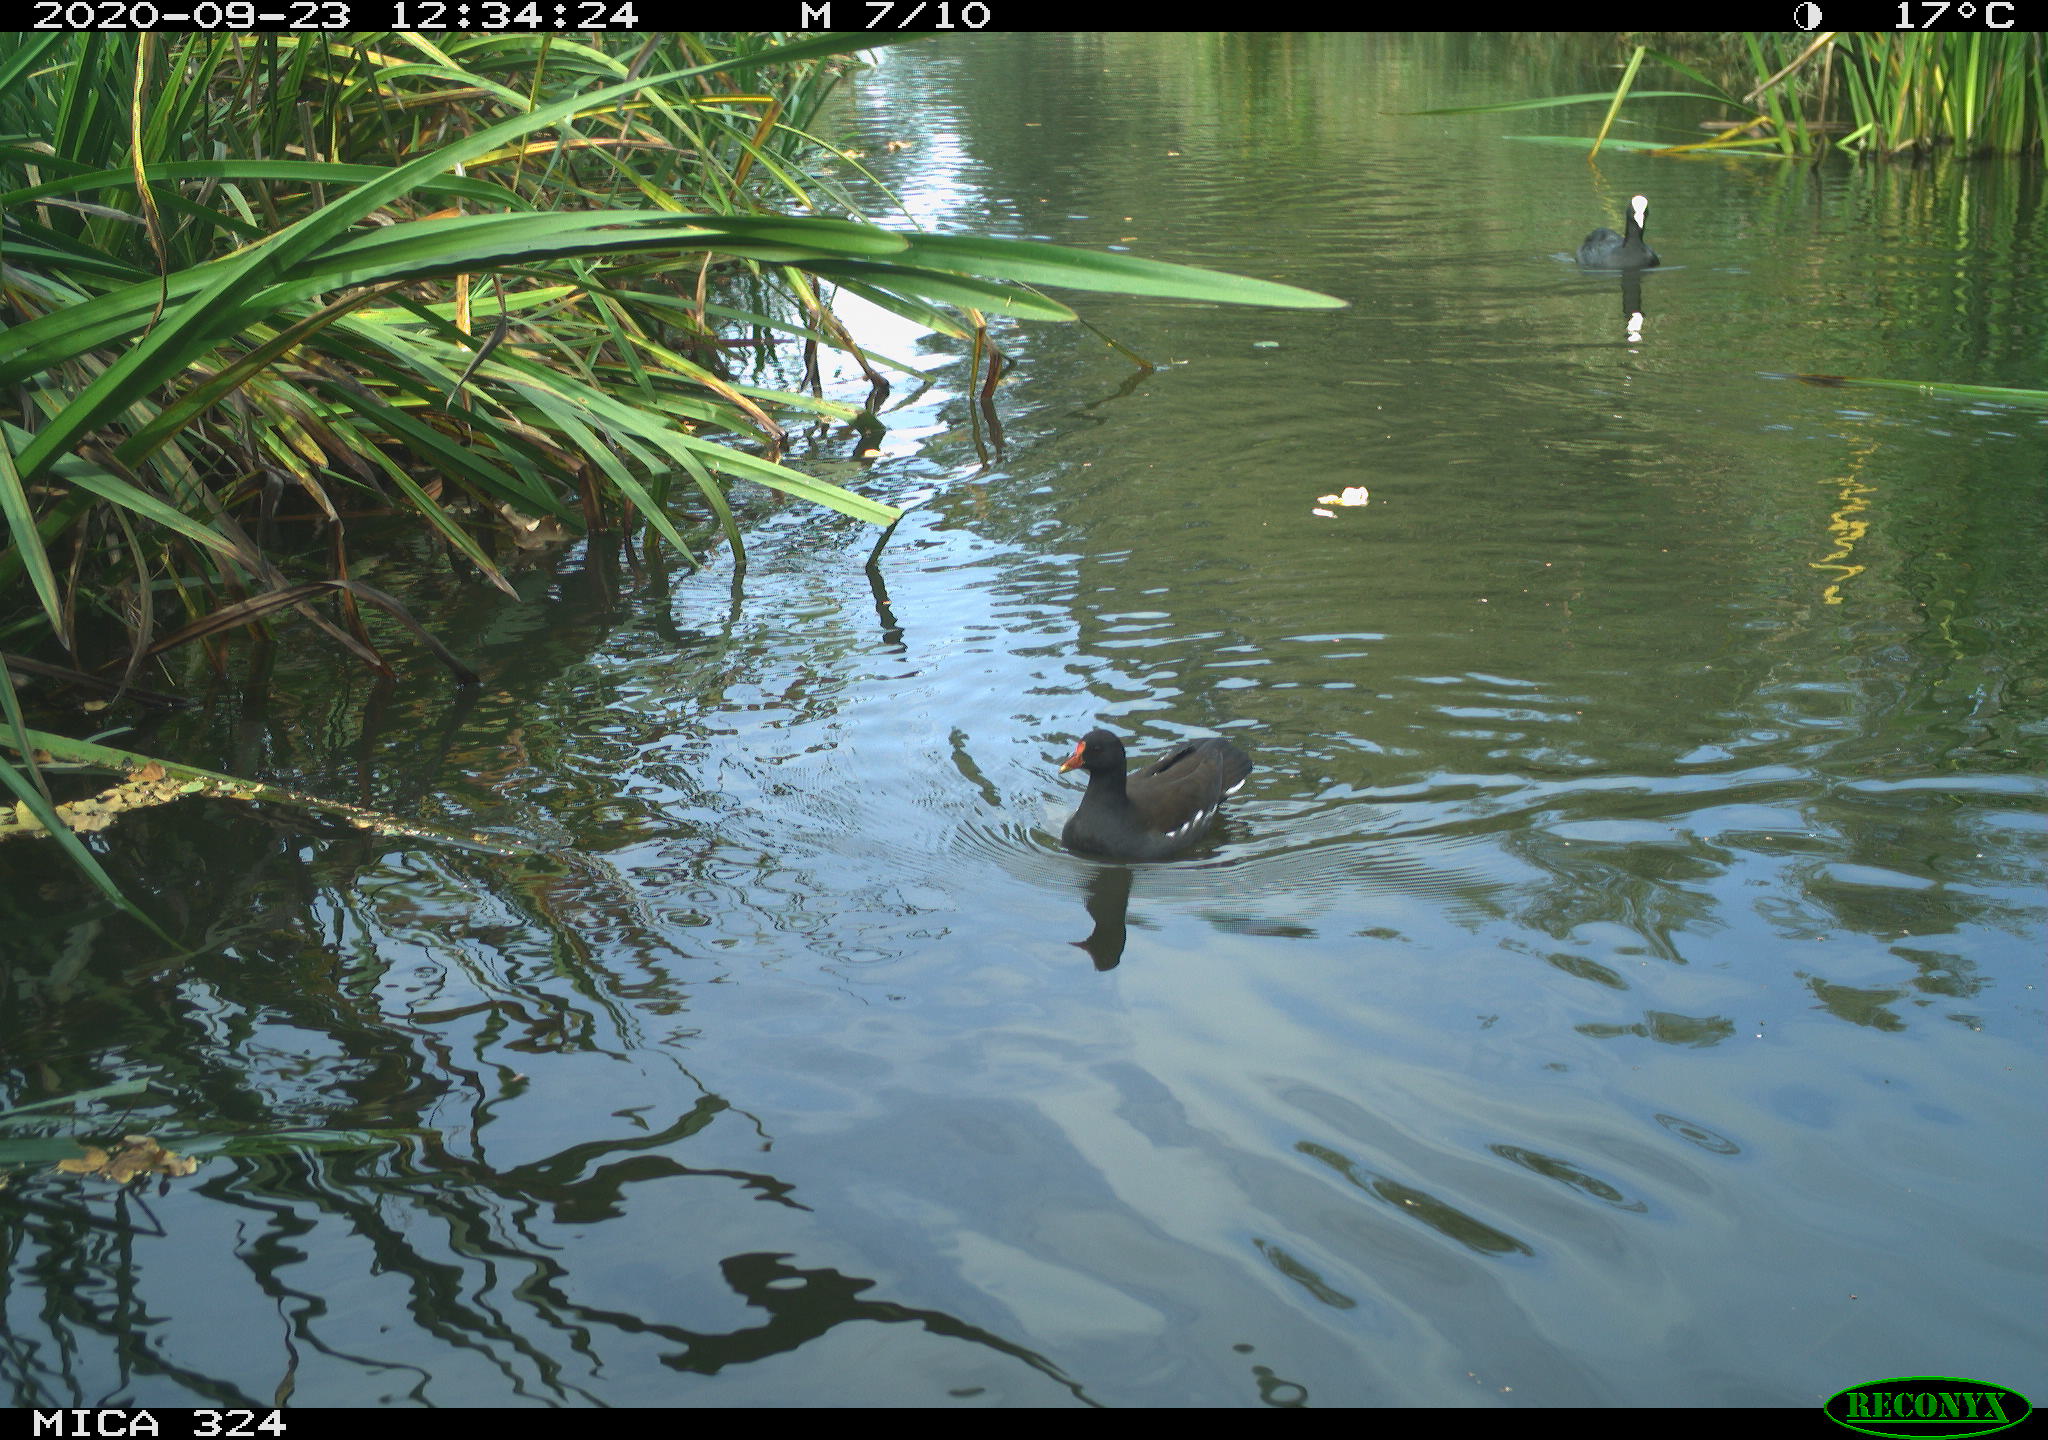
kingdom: Animalia
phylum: Chordata
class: Aves
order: Gruiformes
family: Rallidae
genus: Fulica
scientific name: Fulica atra
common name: Eurasian coot
